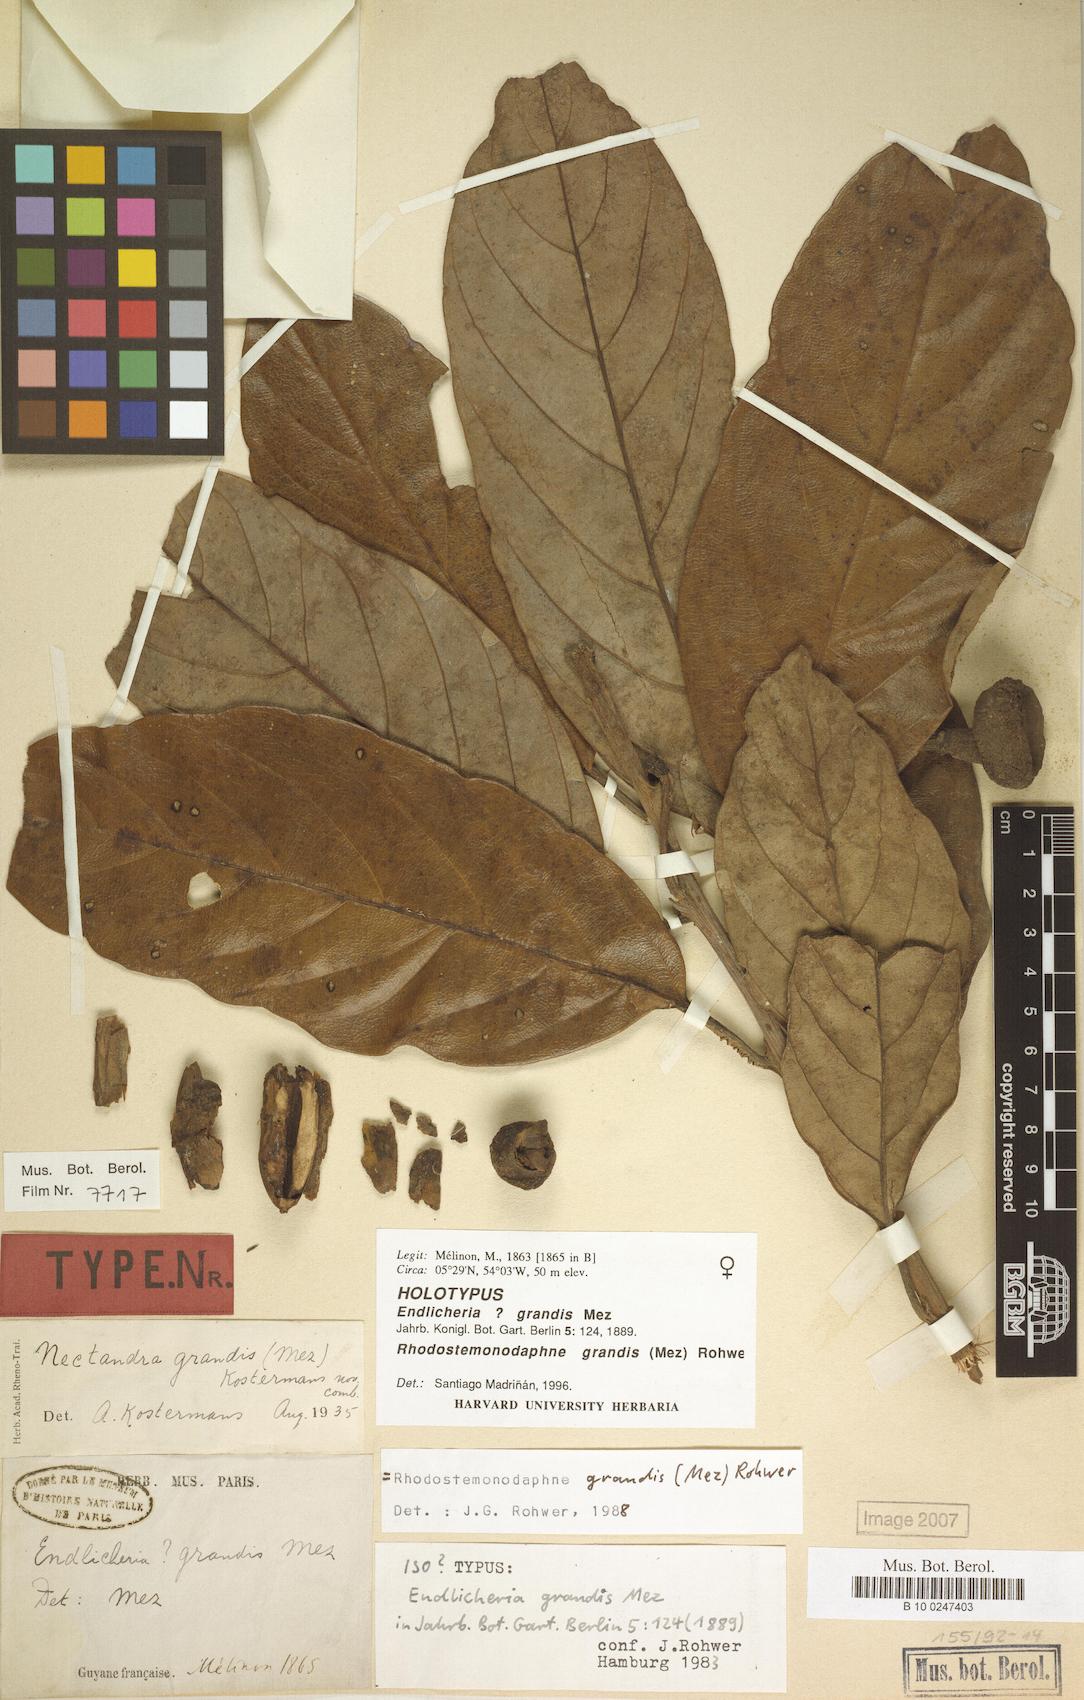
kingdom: Plantae
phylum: Tracheophyta
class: Magnoliopsida
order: Laurales
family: Lauraceae
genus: Rhodostemonodaphne
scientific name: Rhodostemonodaphne grandis
